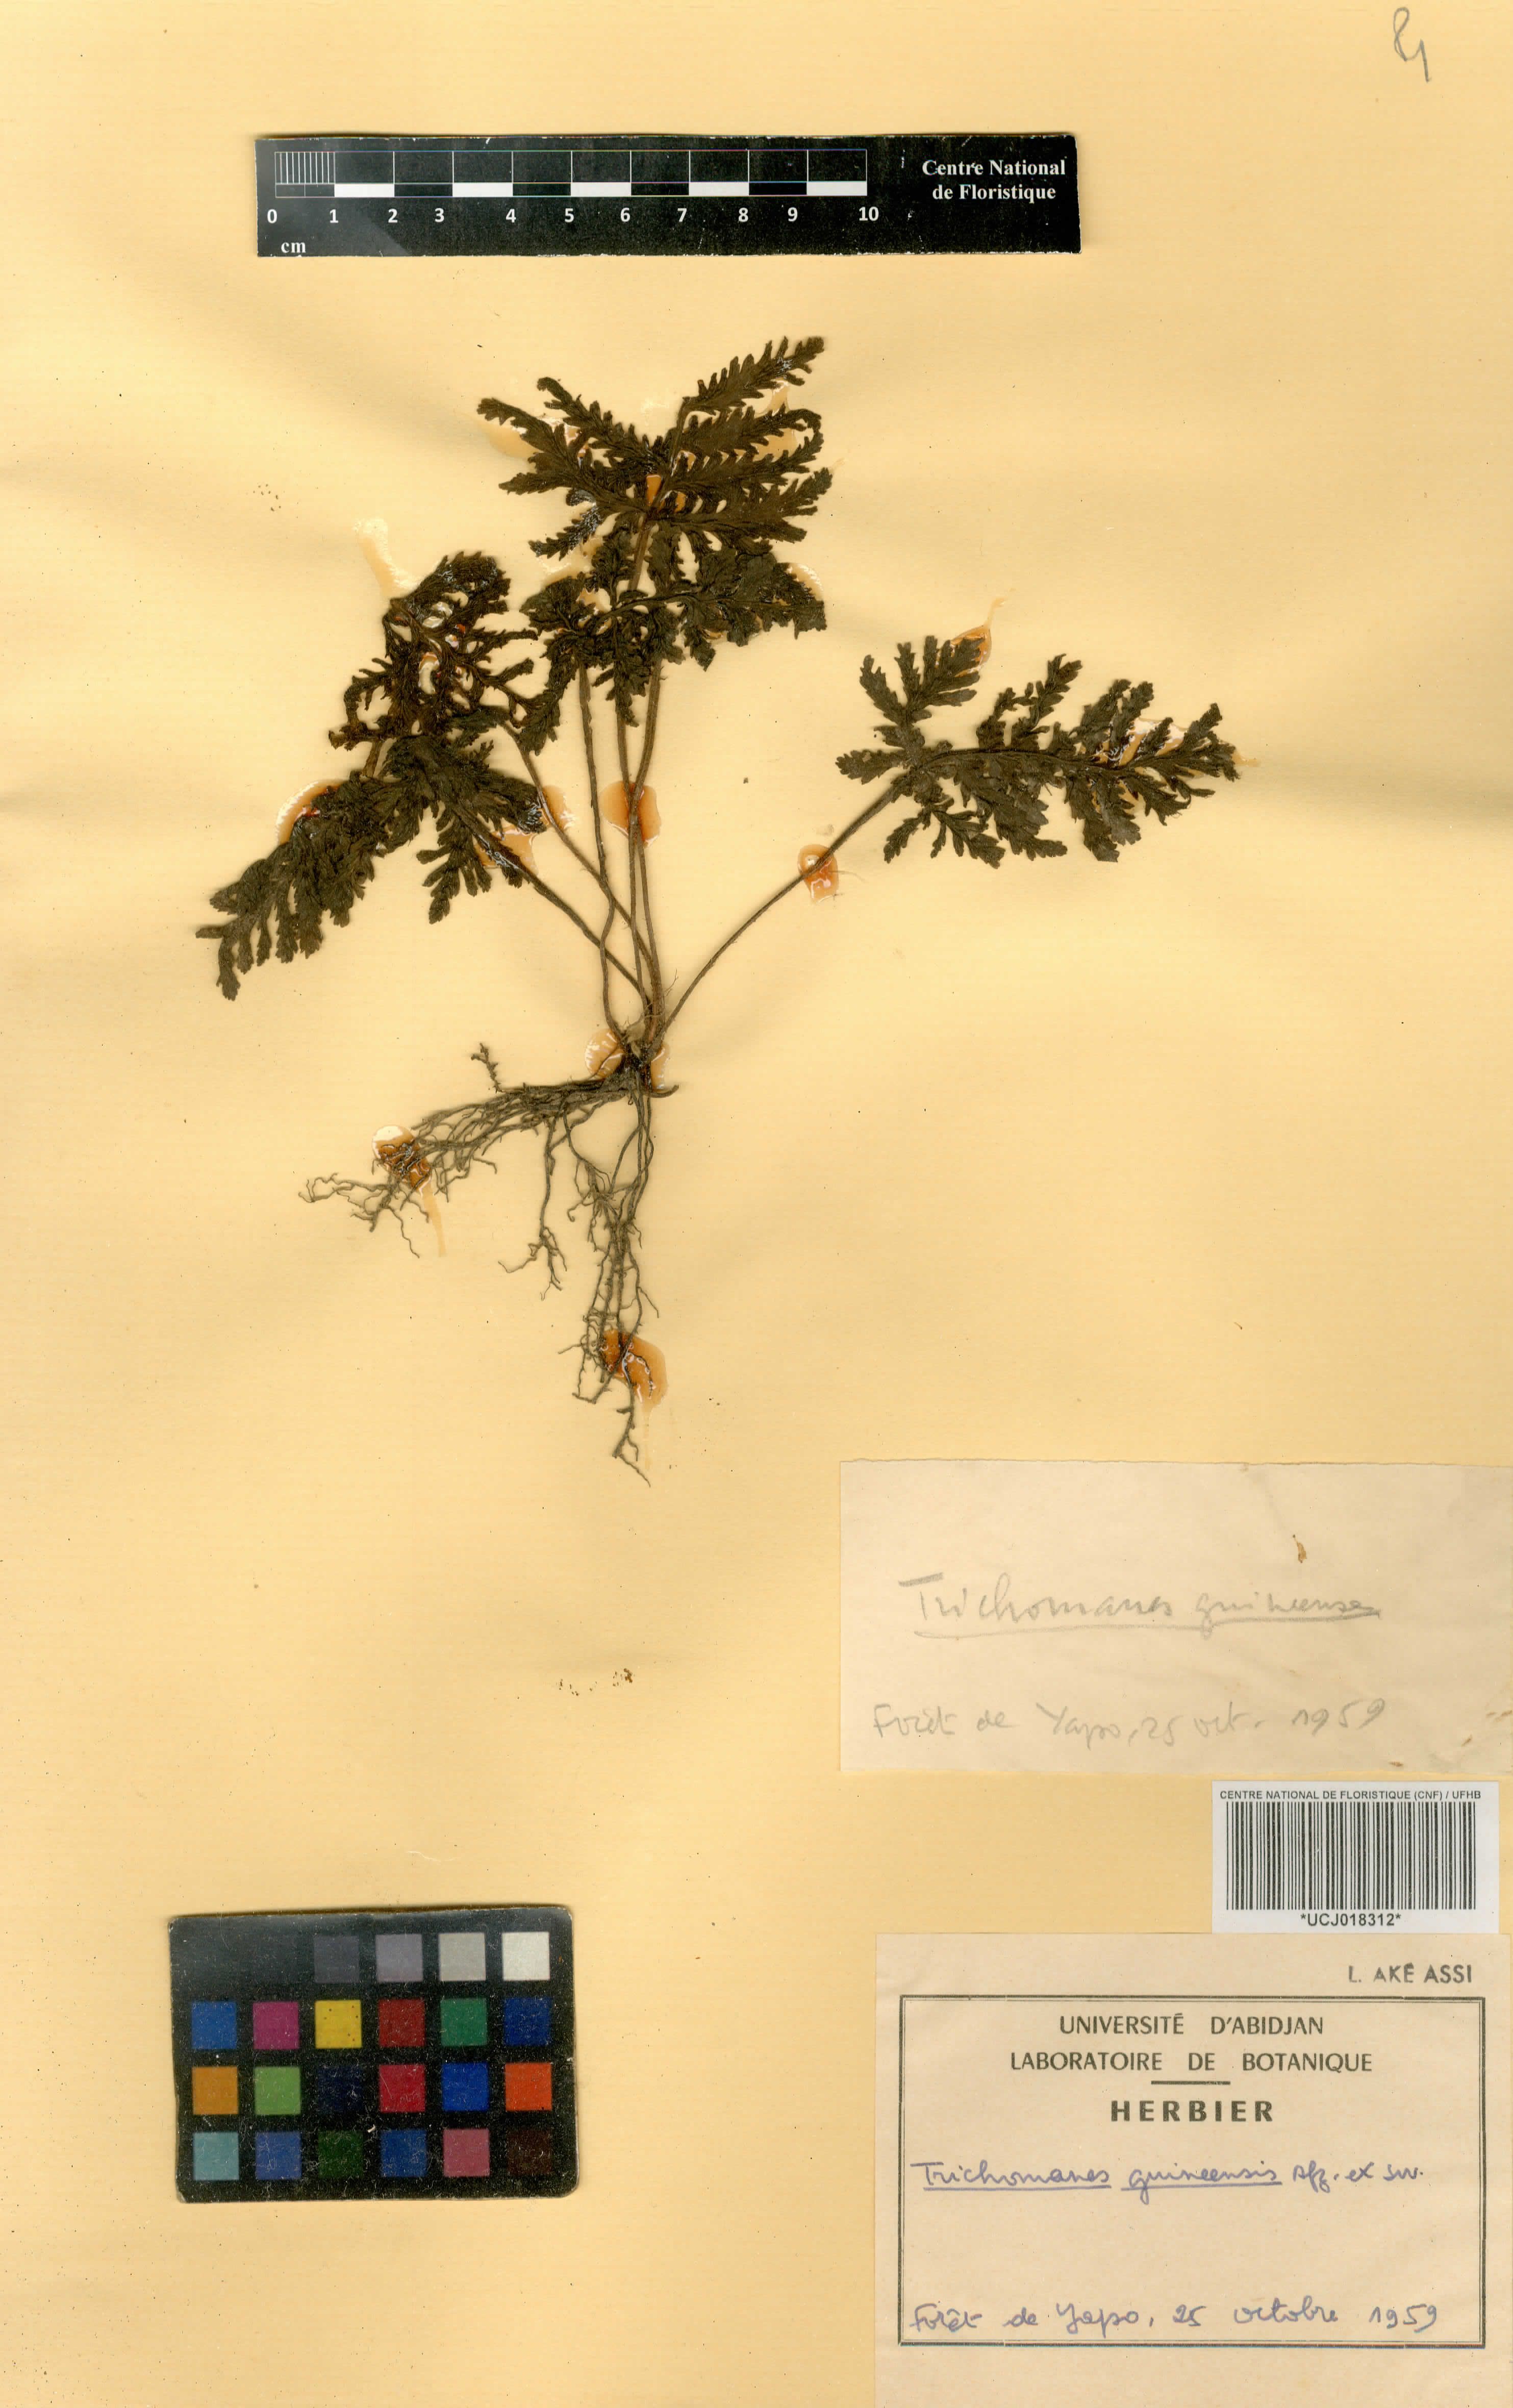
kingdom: Plantae
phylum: Tracheophyta
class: Polypodiopsida
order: Hymenophyllales
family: Hymenophyllaceae
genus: Abrodictyum
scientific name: Abrodictyum guineense
